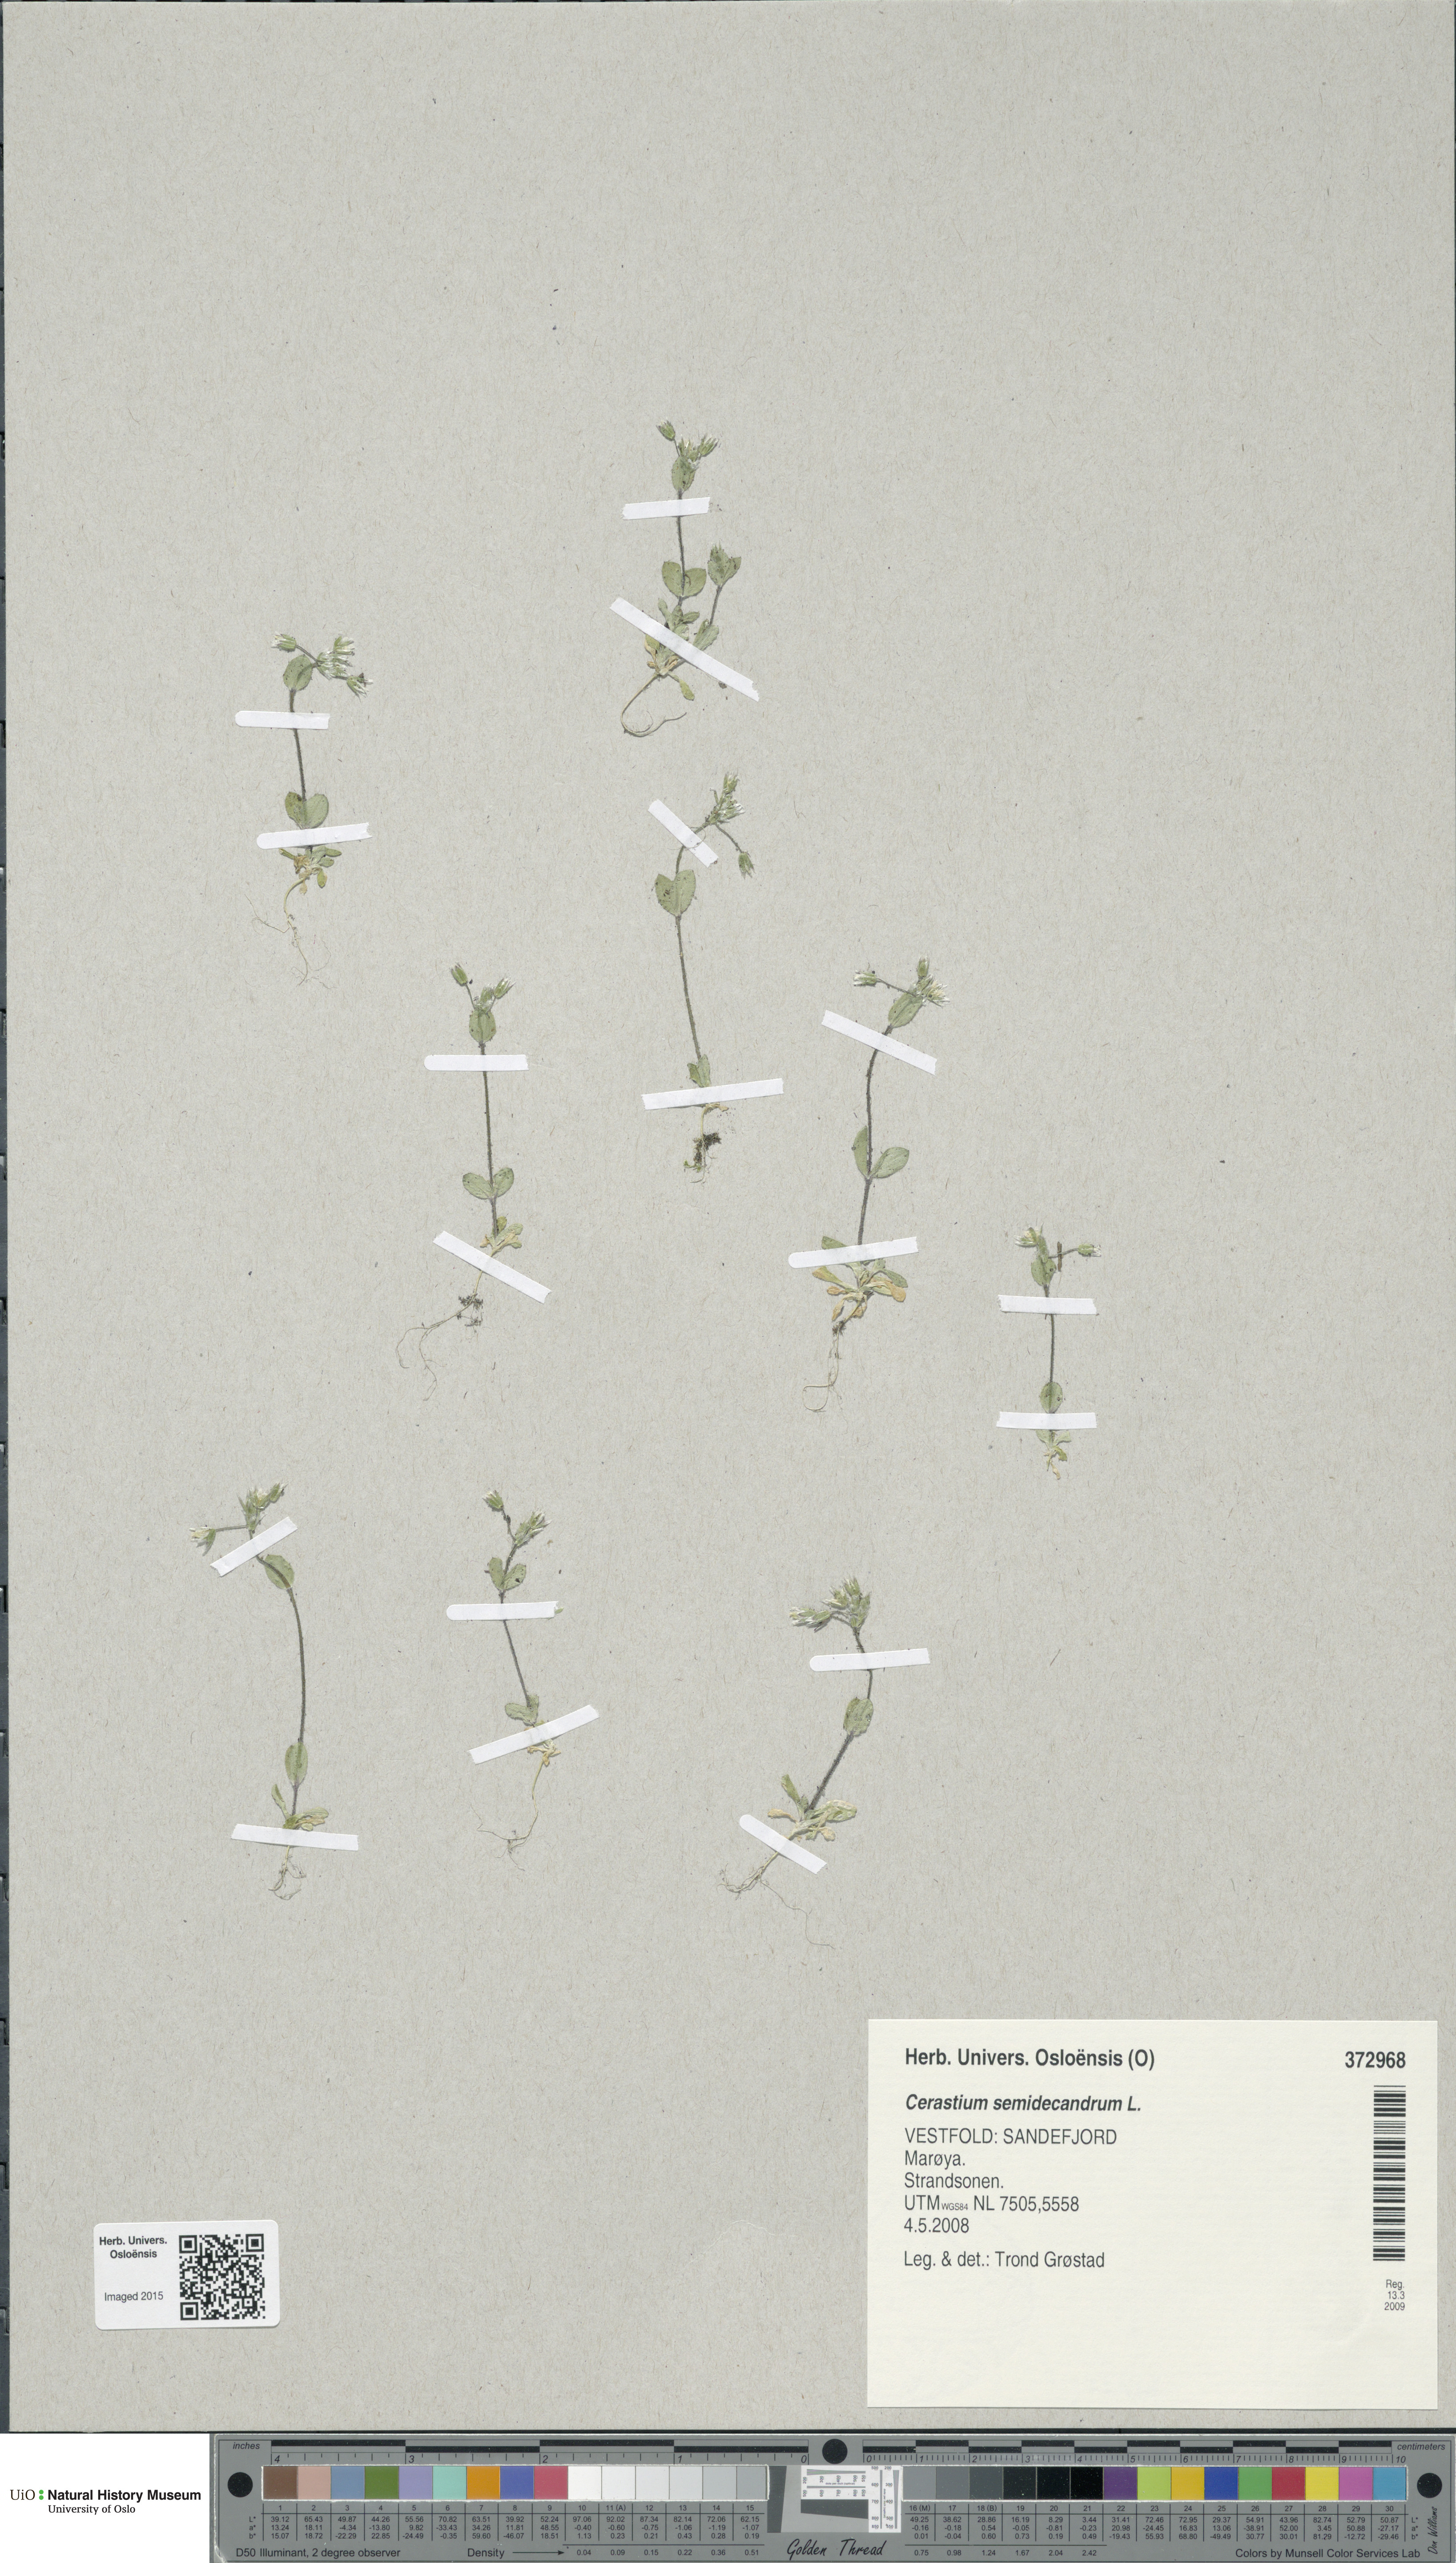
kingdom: Plantae
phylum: Tracheophyta
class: Magnoliopsida
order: Caryophyllales
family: Caryophyllaceae
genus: Cerastium
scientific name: Cerastium semidecandrum
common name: Little mouse-ear
